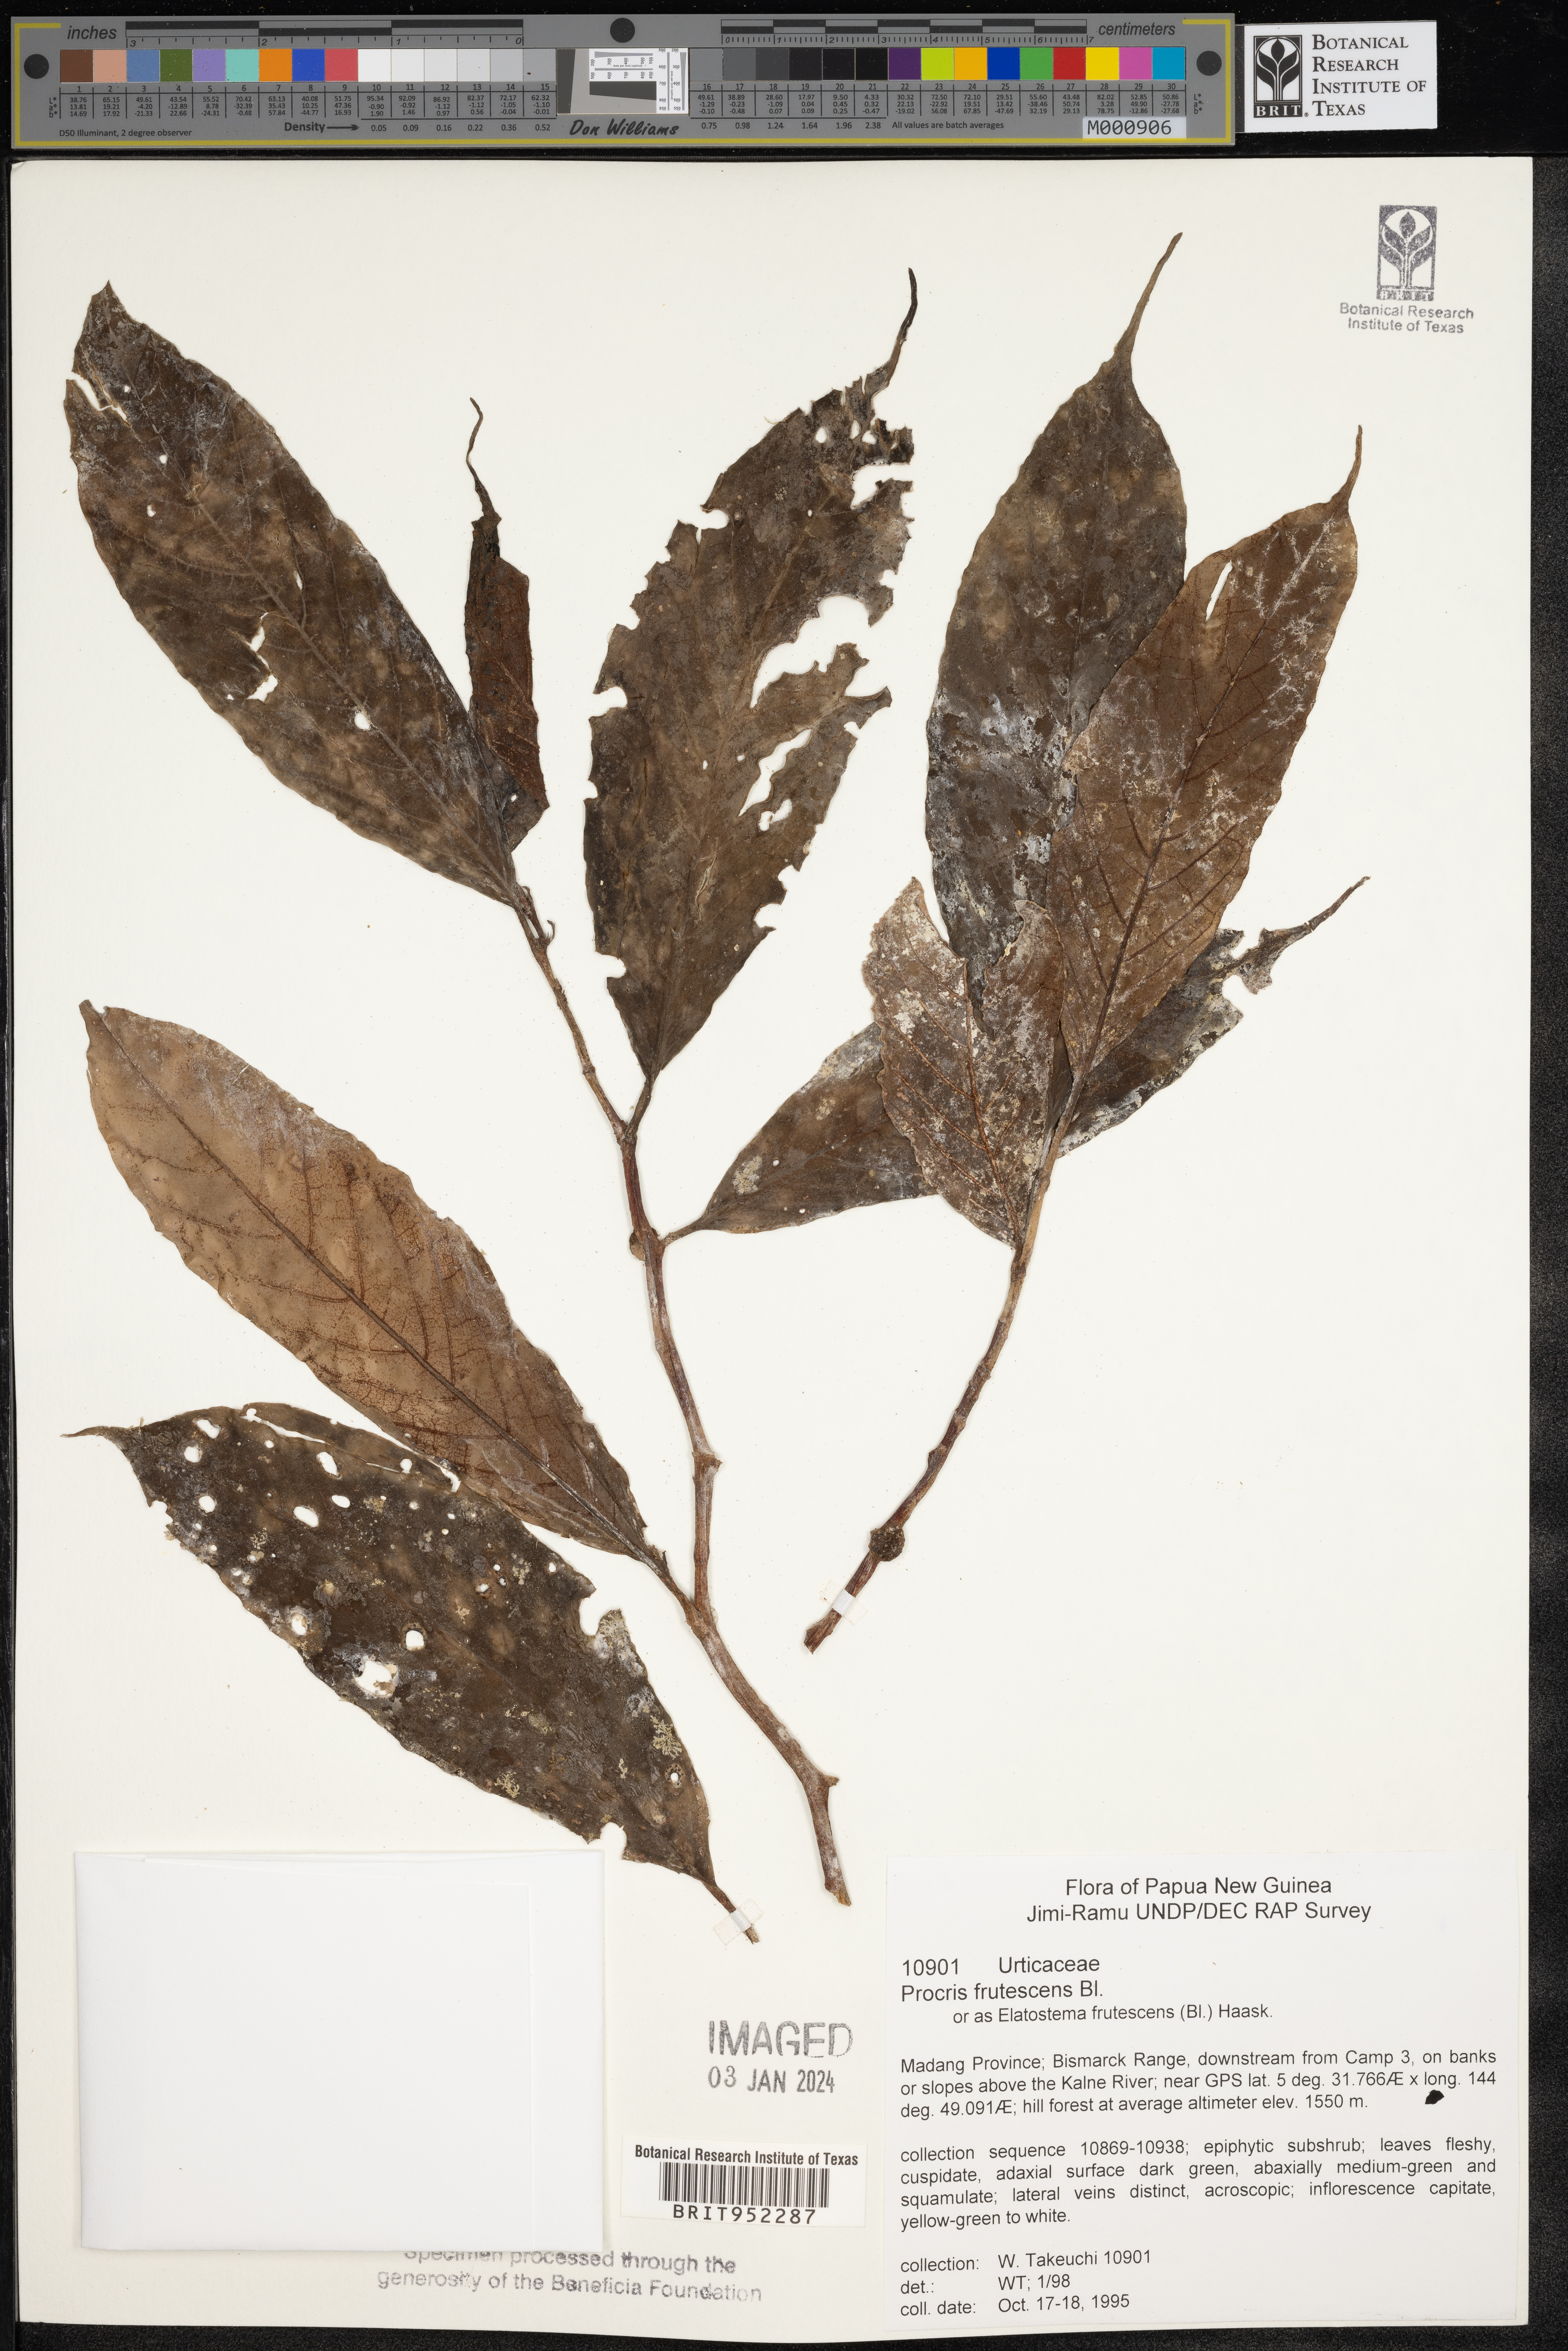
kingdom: Plantae
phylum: Tracheophyta
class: Magnoliopsida
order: Rosales
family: Urticaceae
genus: Procris
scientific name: Procris
